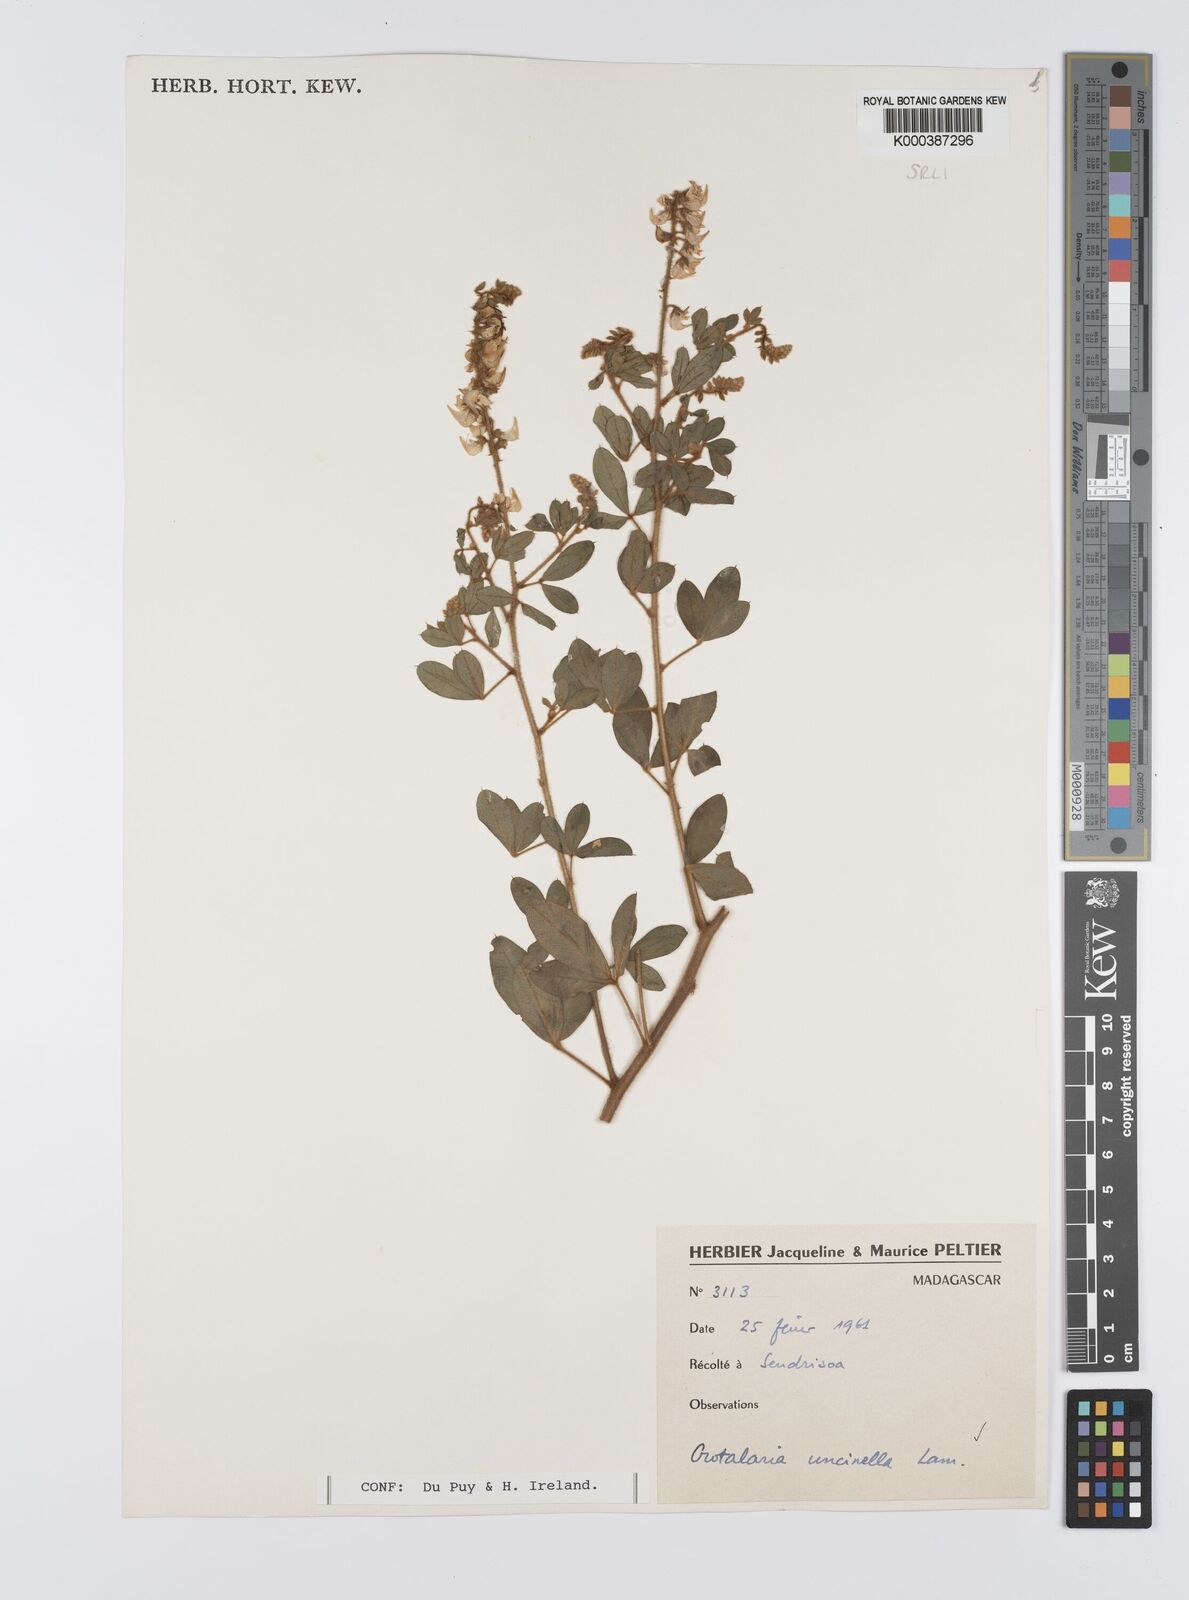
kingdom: Plantae
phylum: Tracheophyta
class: Magnoliopsida
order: Fabales
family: Fabaceae
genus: Crotalaria
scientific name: Crotalaria uncinella
